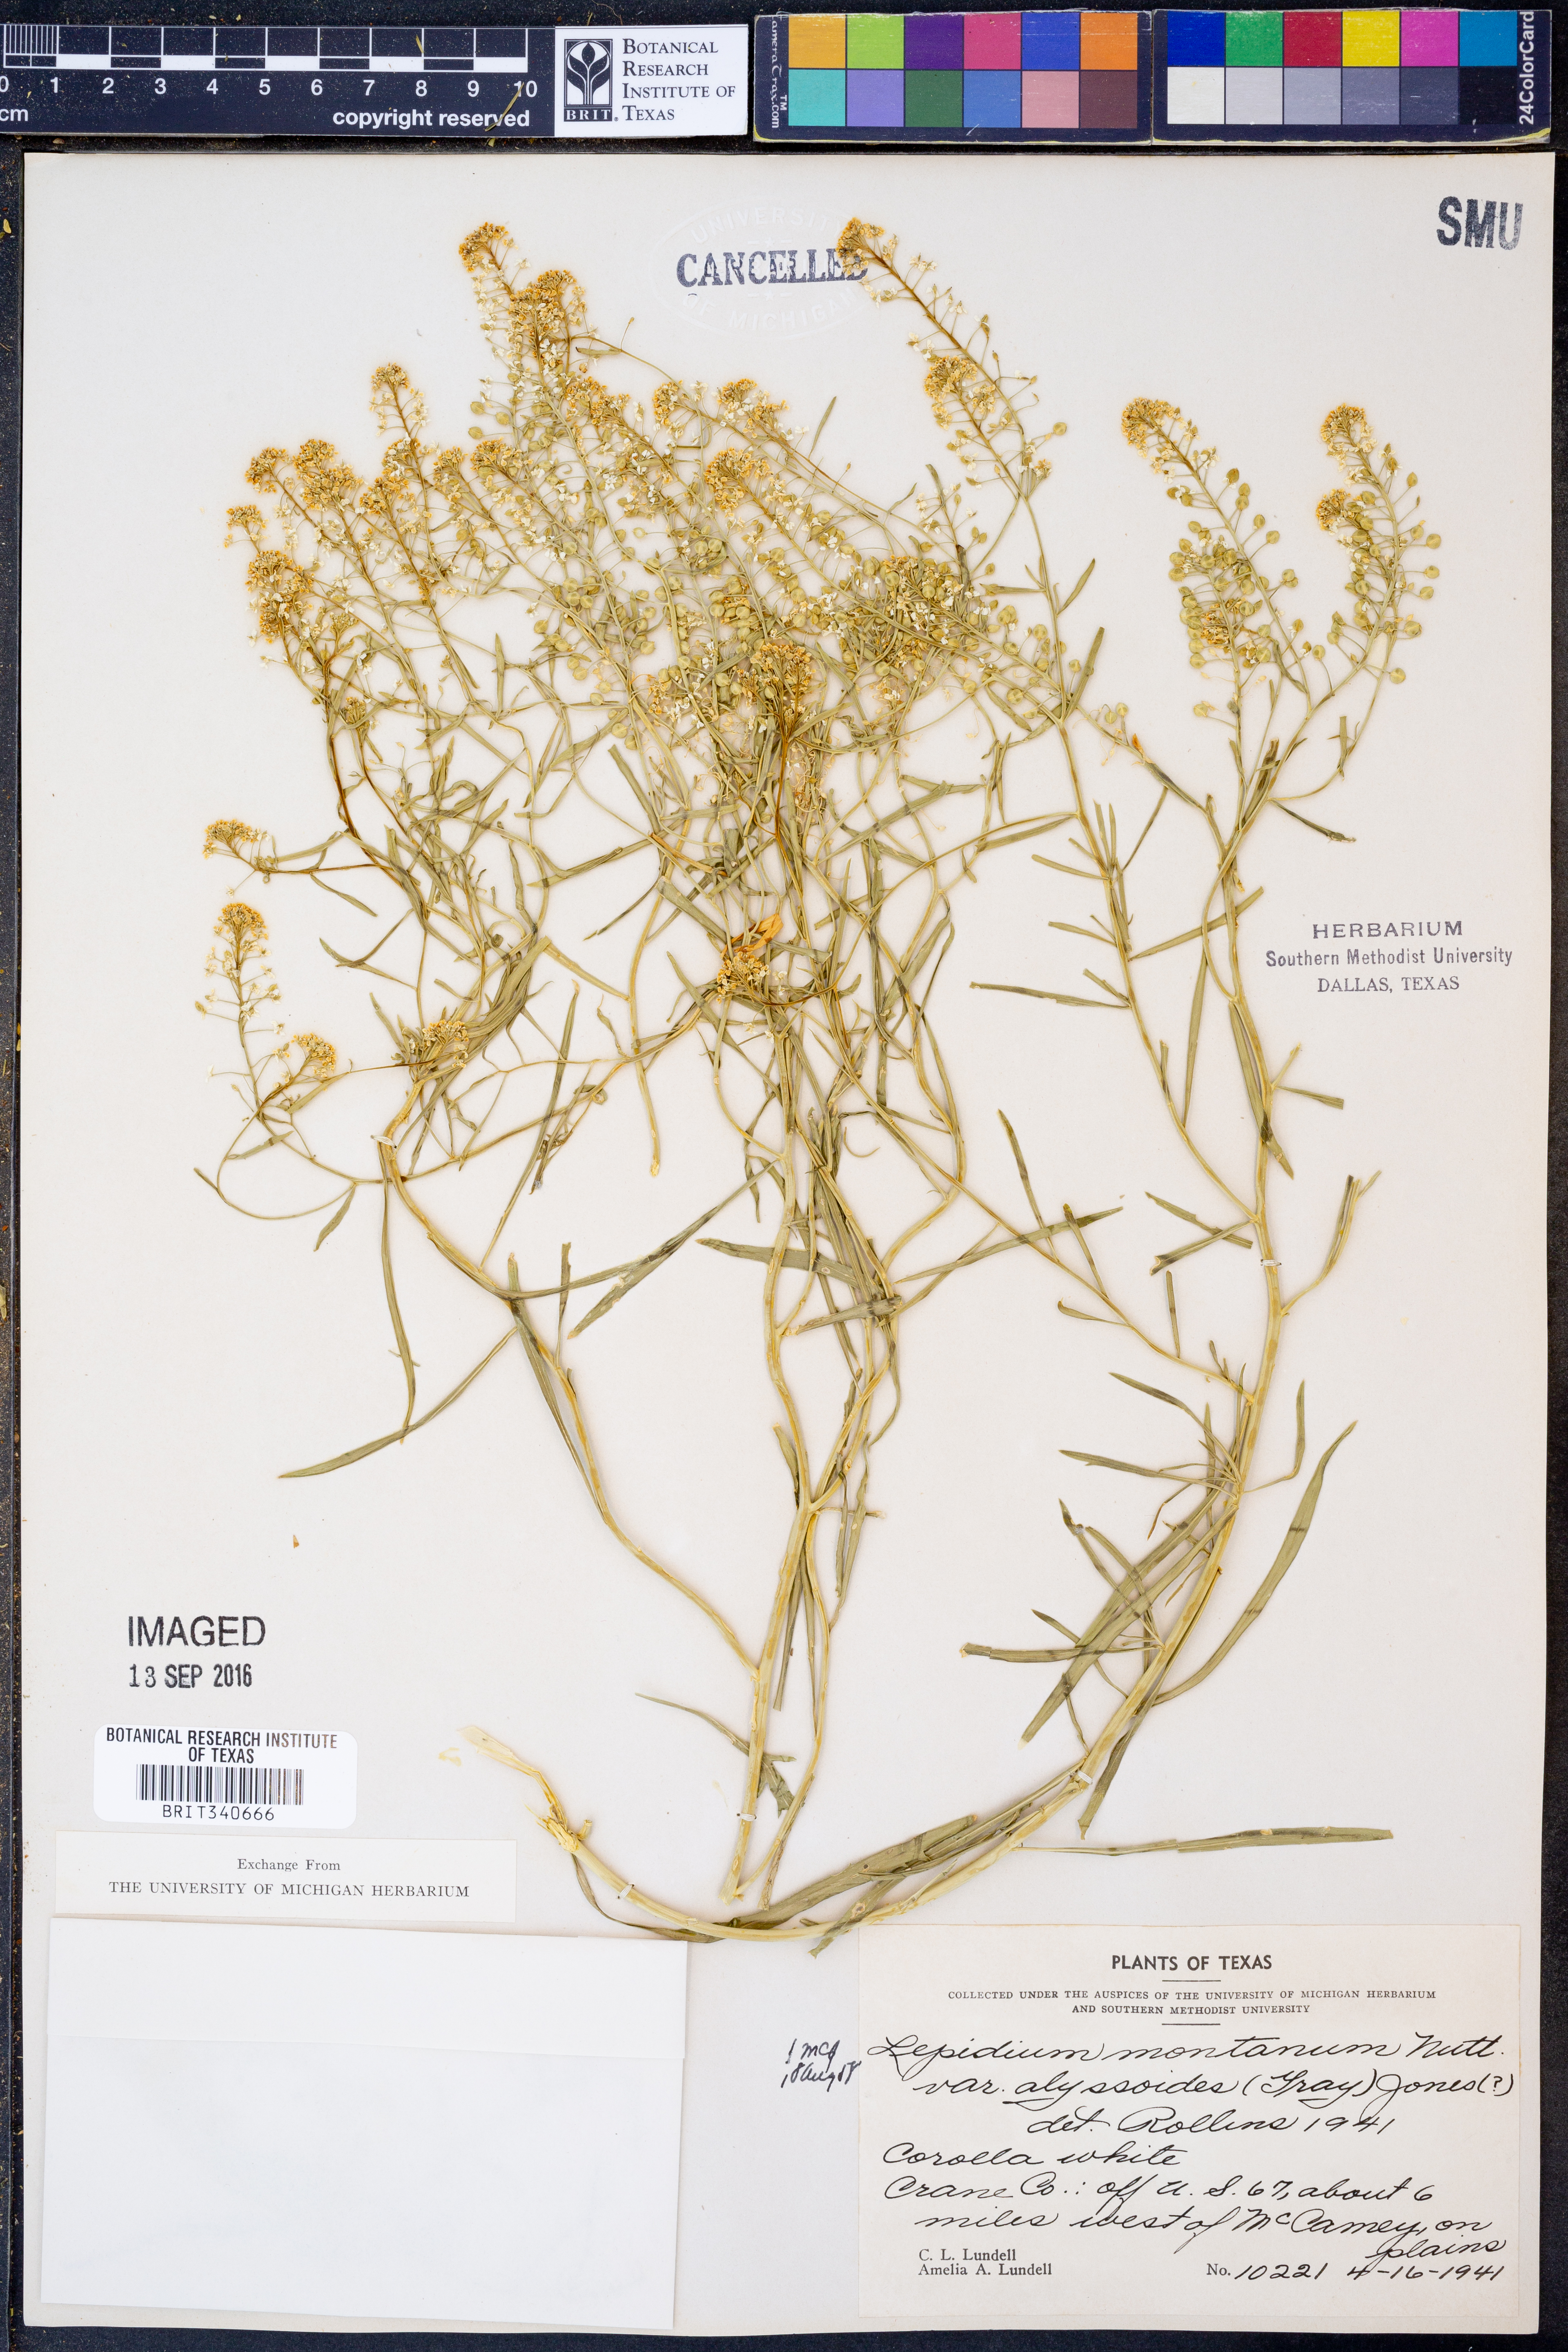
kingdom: Plantae
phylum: Tracheophyta
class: Magnoliopsida
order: Brassicales
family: Brassicaceae
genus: Lepidium
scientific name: Lepidium alyssoides
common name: Mesa pepperweed
